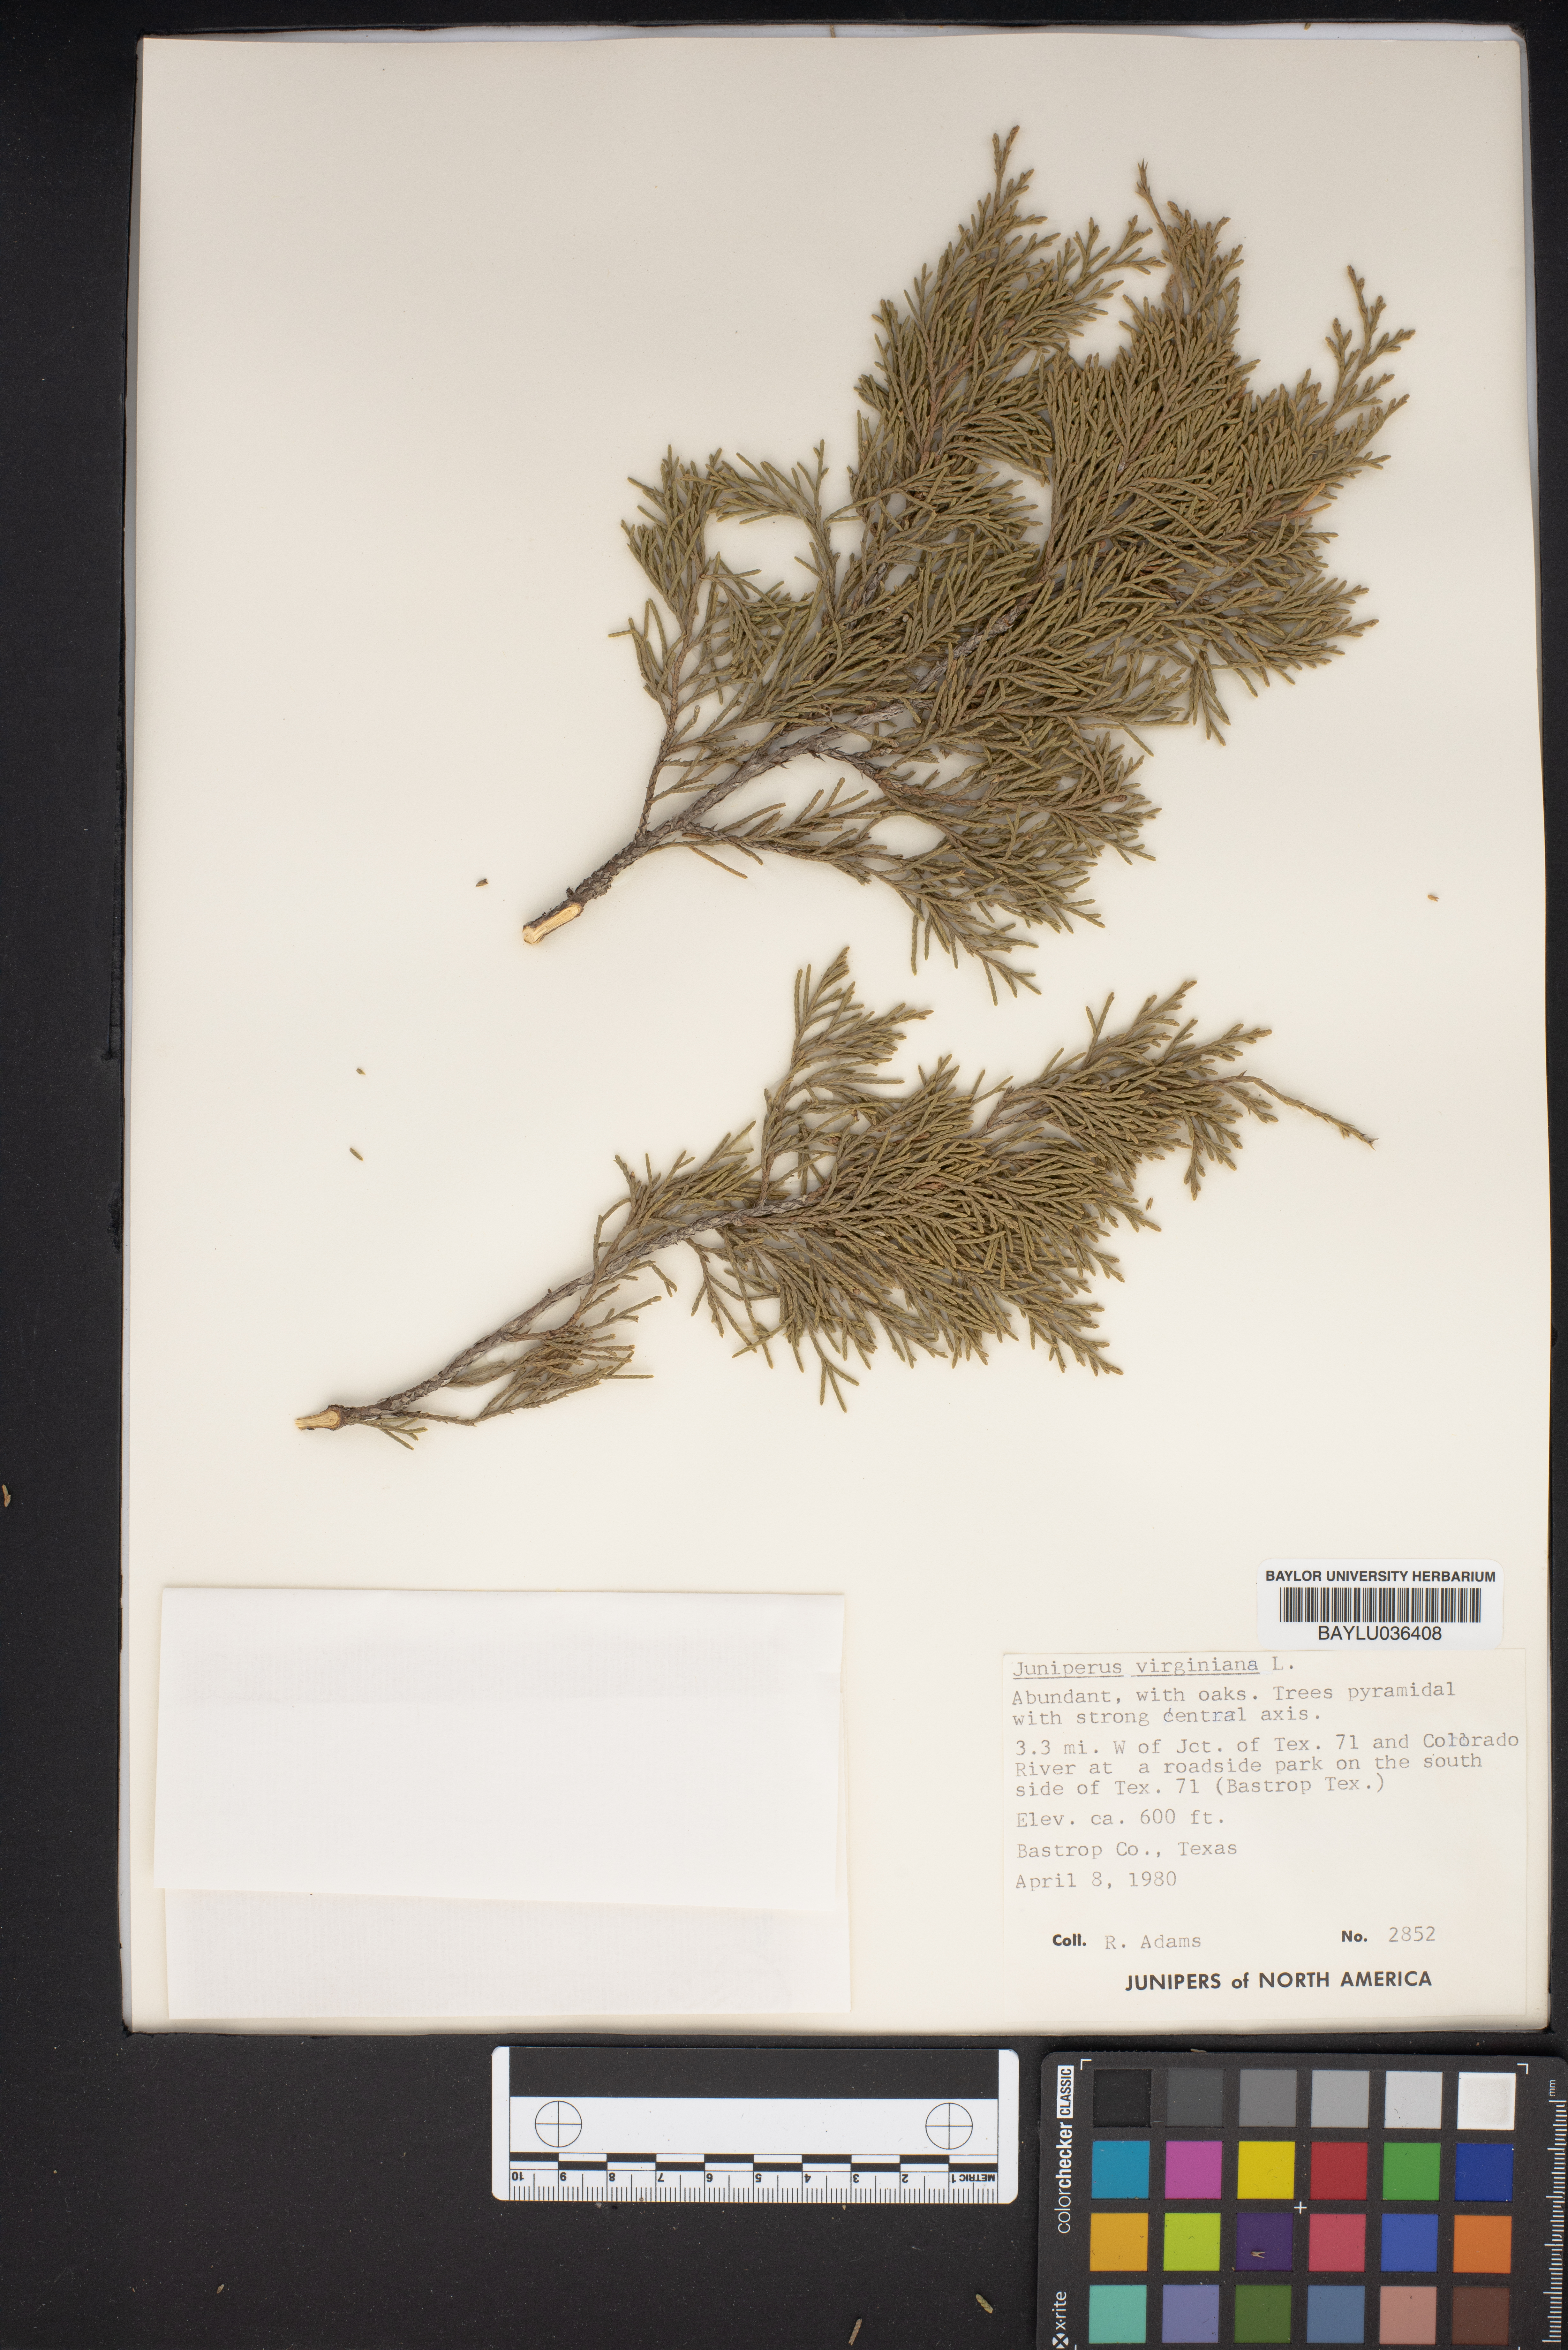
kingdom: Plantae
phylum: Tracheophyta
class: Pinopsida
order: Pinales
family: Cupressaceae
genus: Juniperus
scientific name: Juniperus virginiana
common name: Red juniper
